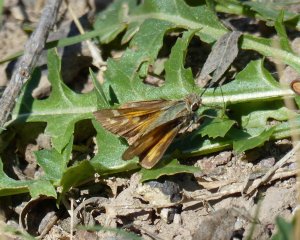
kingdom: Animalia
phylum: Arthropoda
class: Insecta
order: Lepidoptera
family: Hesperiidae
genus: Atalopedes
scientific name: Atalopedes campestris
